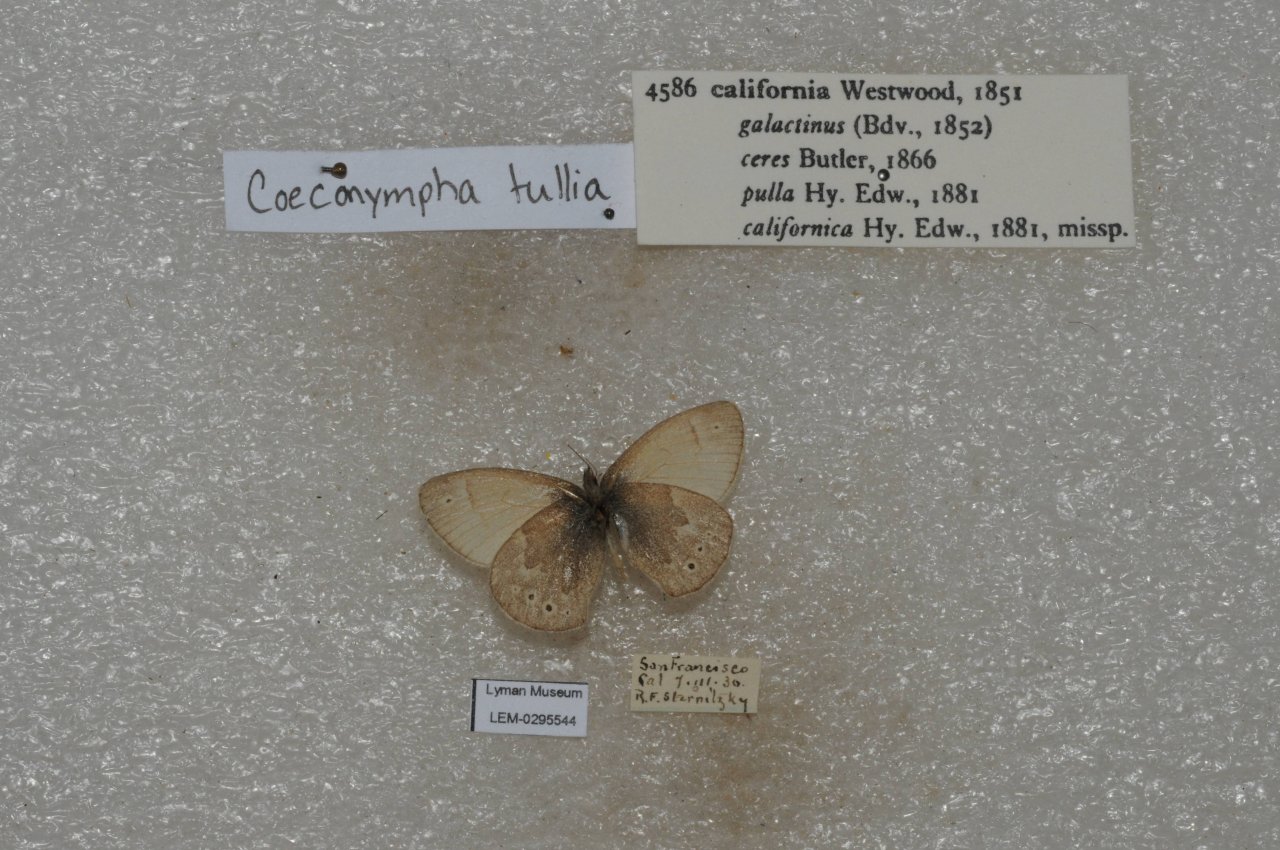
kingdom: Animalia
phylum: Arthropoda
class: Insecta
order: Lepidoptera
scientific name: Lepidoptera
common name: Butterflies
